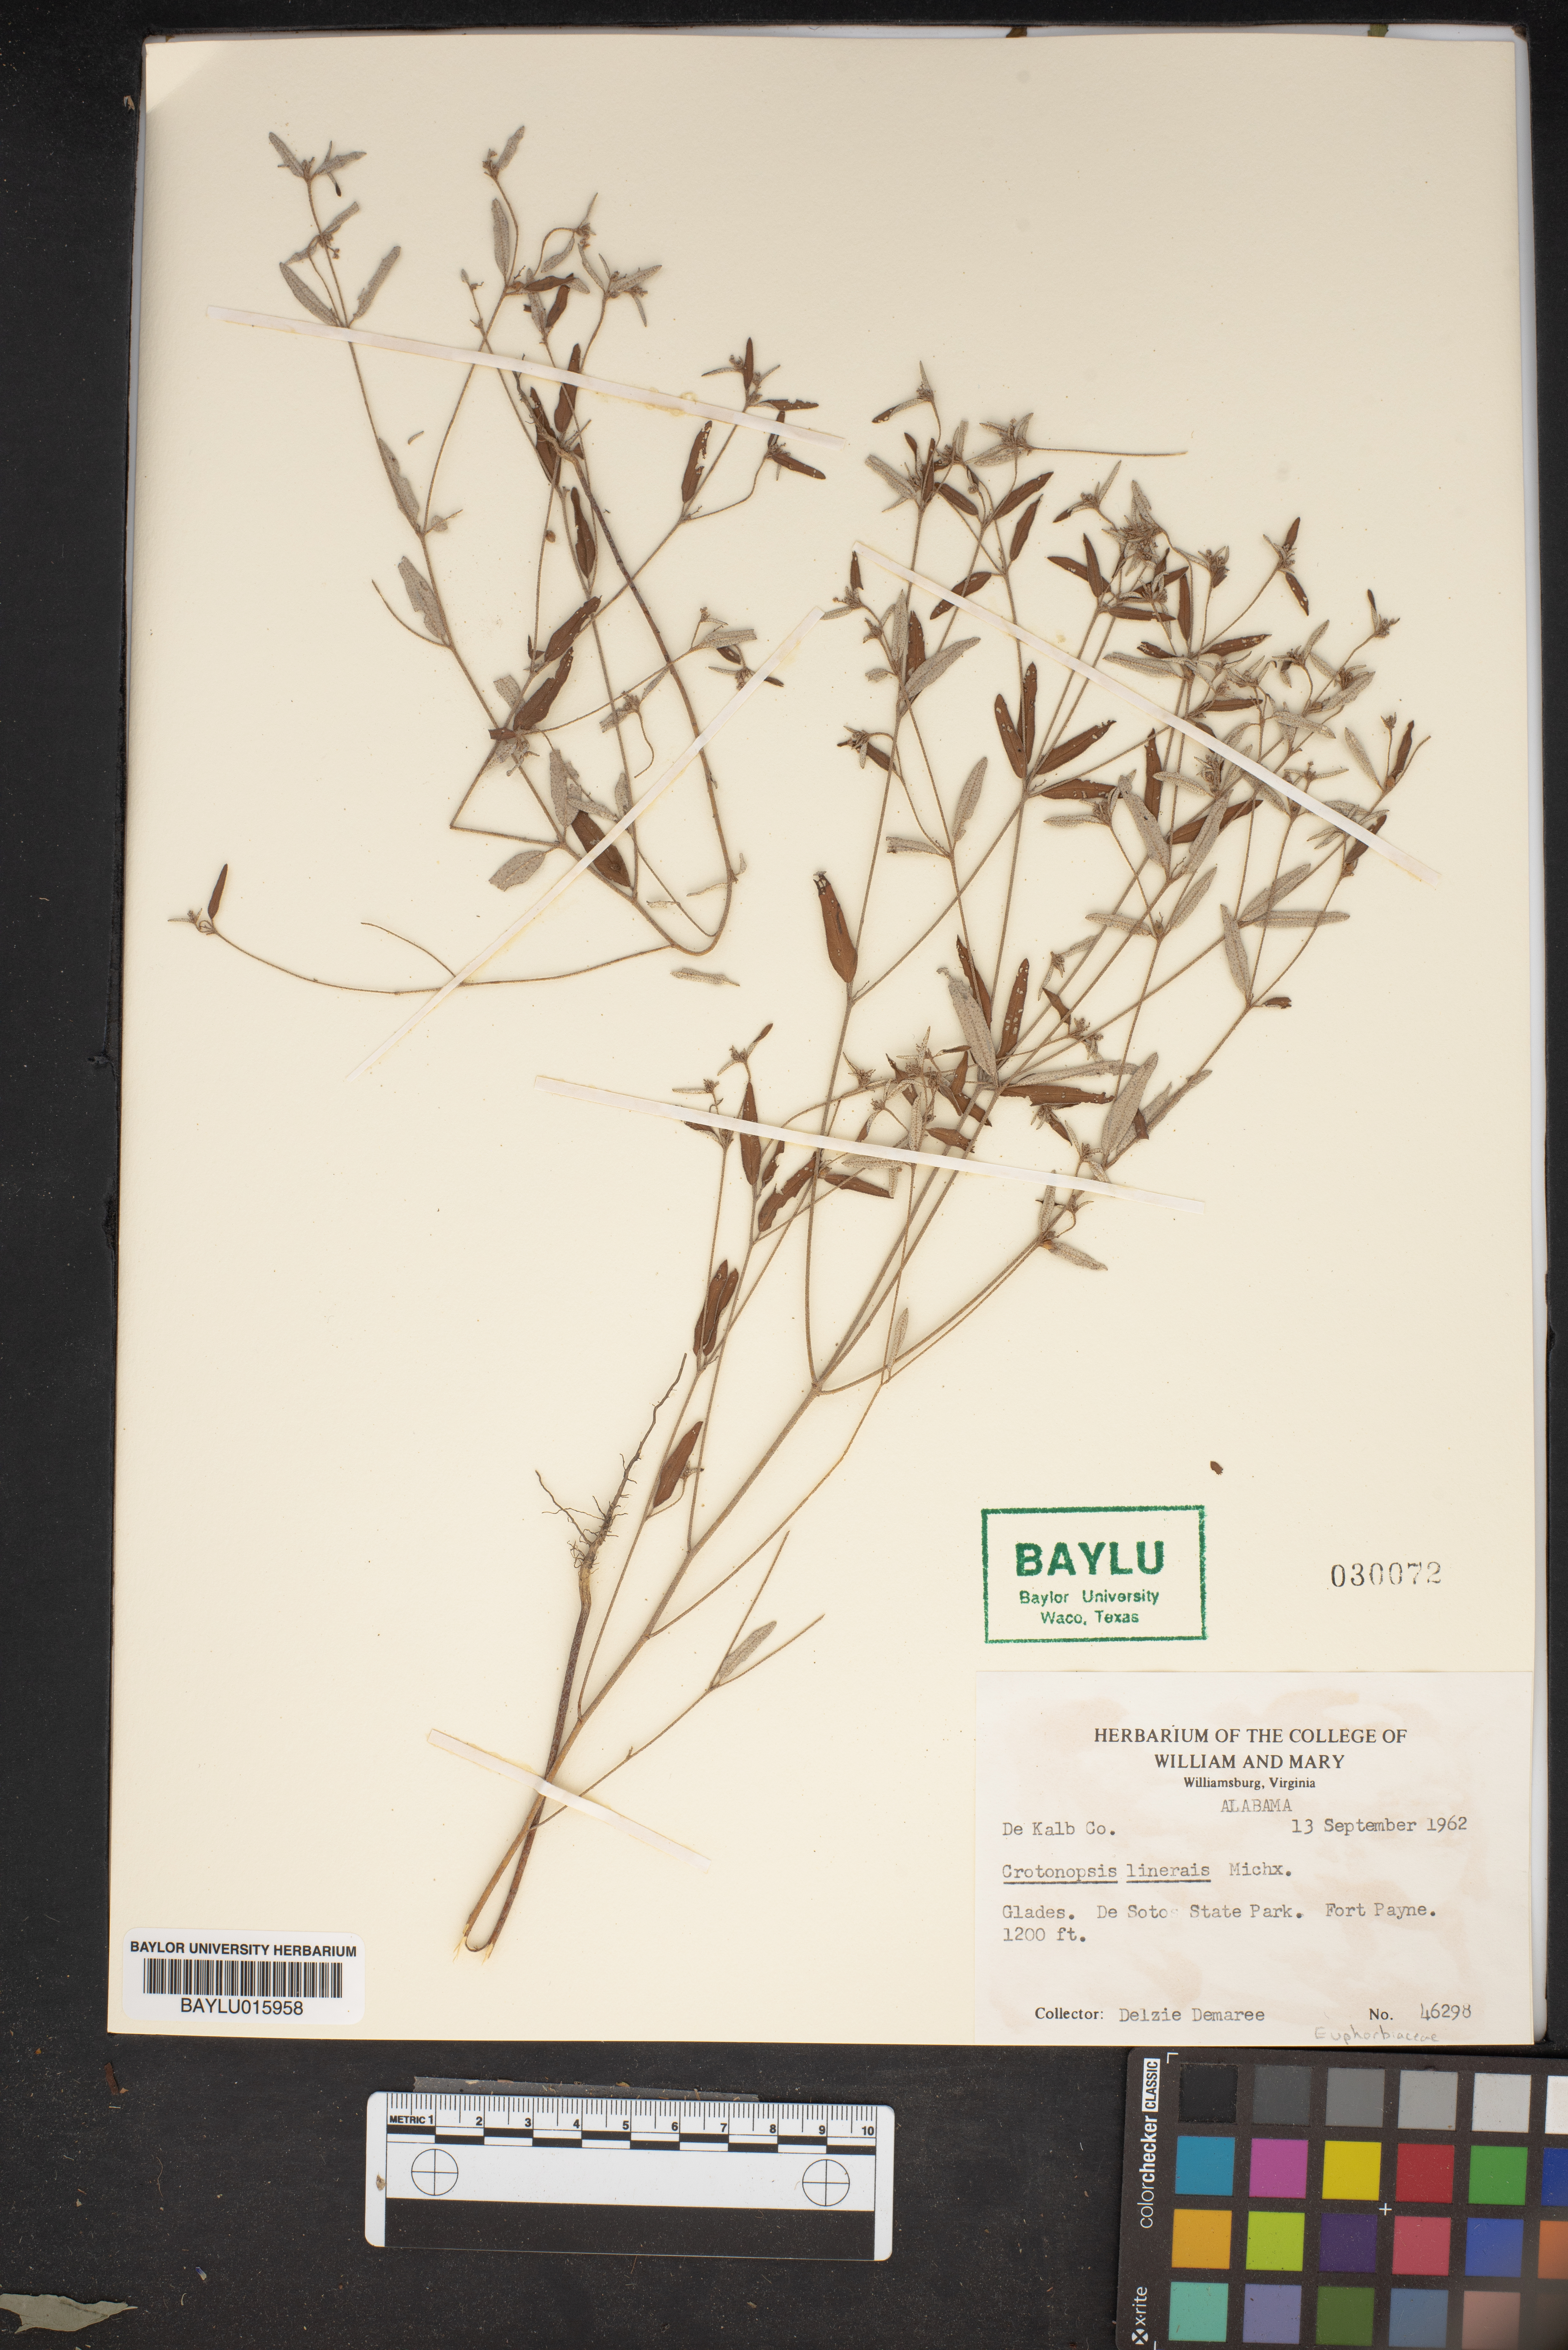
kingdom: Plantae
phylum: Tracheophyta
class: Magnoliopsida
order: Malpighiales
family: Euphorbiaceae
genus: Croton
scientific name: Croton michauxii
